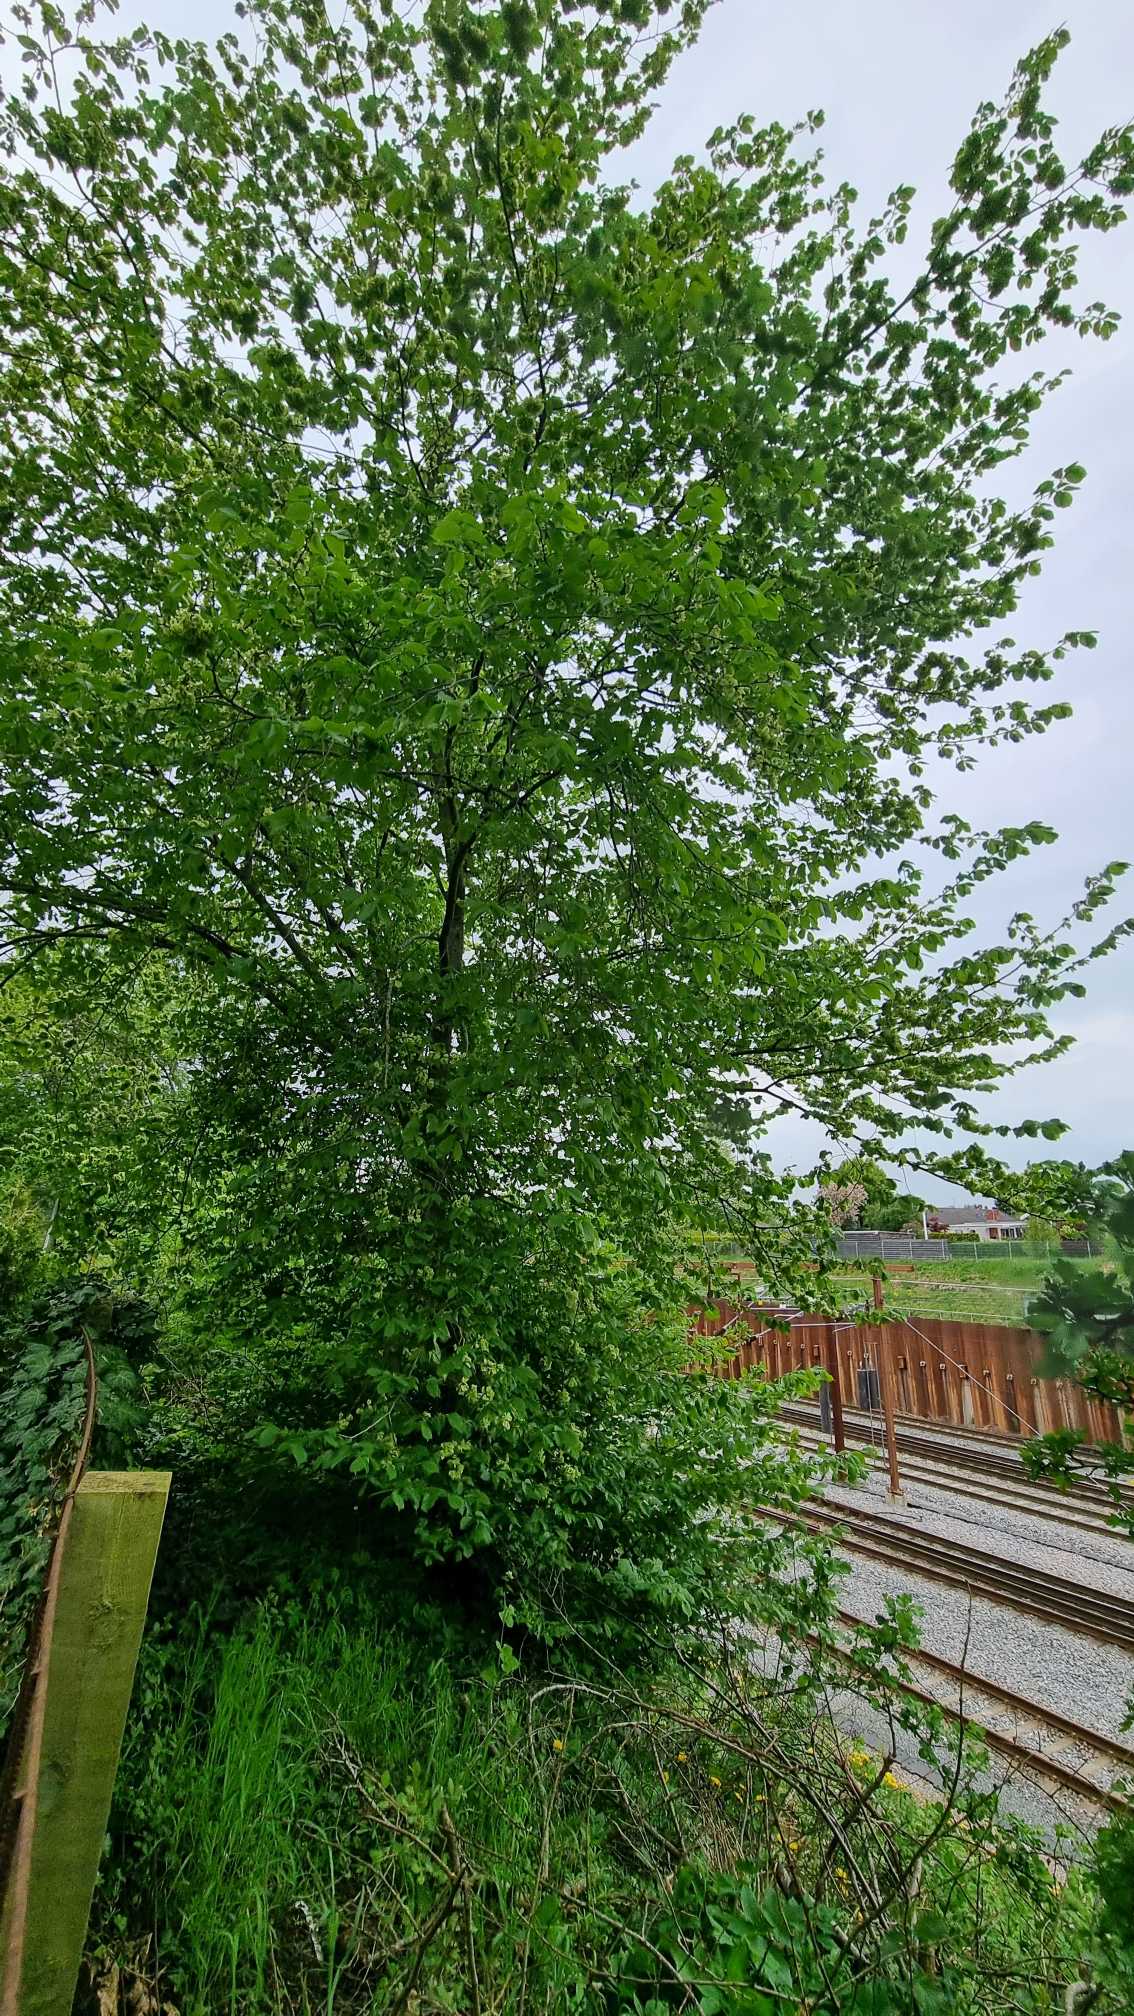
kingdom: Plantae
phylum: Tracheophyta
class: Magnoliopsida
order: Rosales
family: Ulmaceae
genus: Ulmus
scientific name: Ulmus glabra
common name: Skov-elm/storbladet elm
